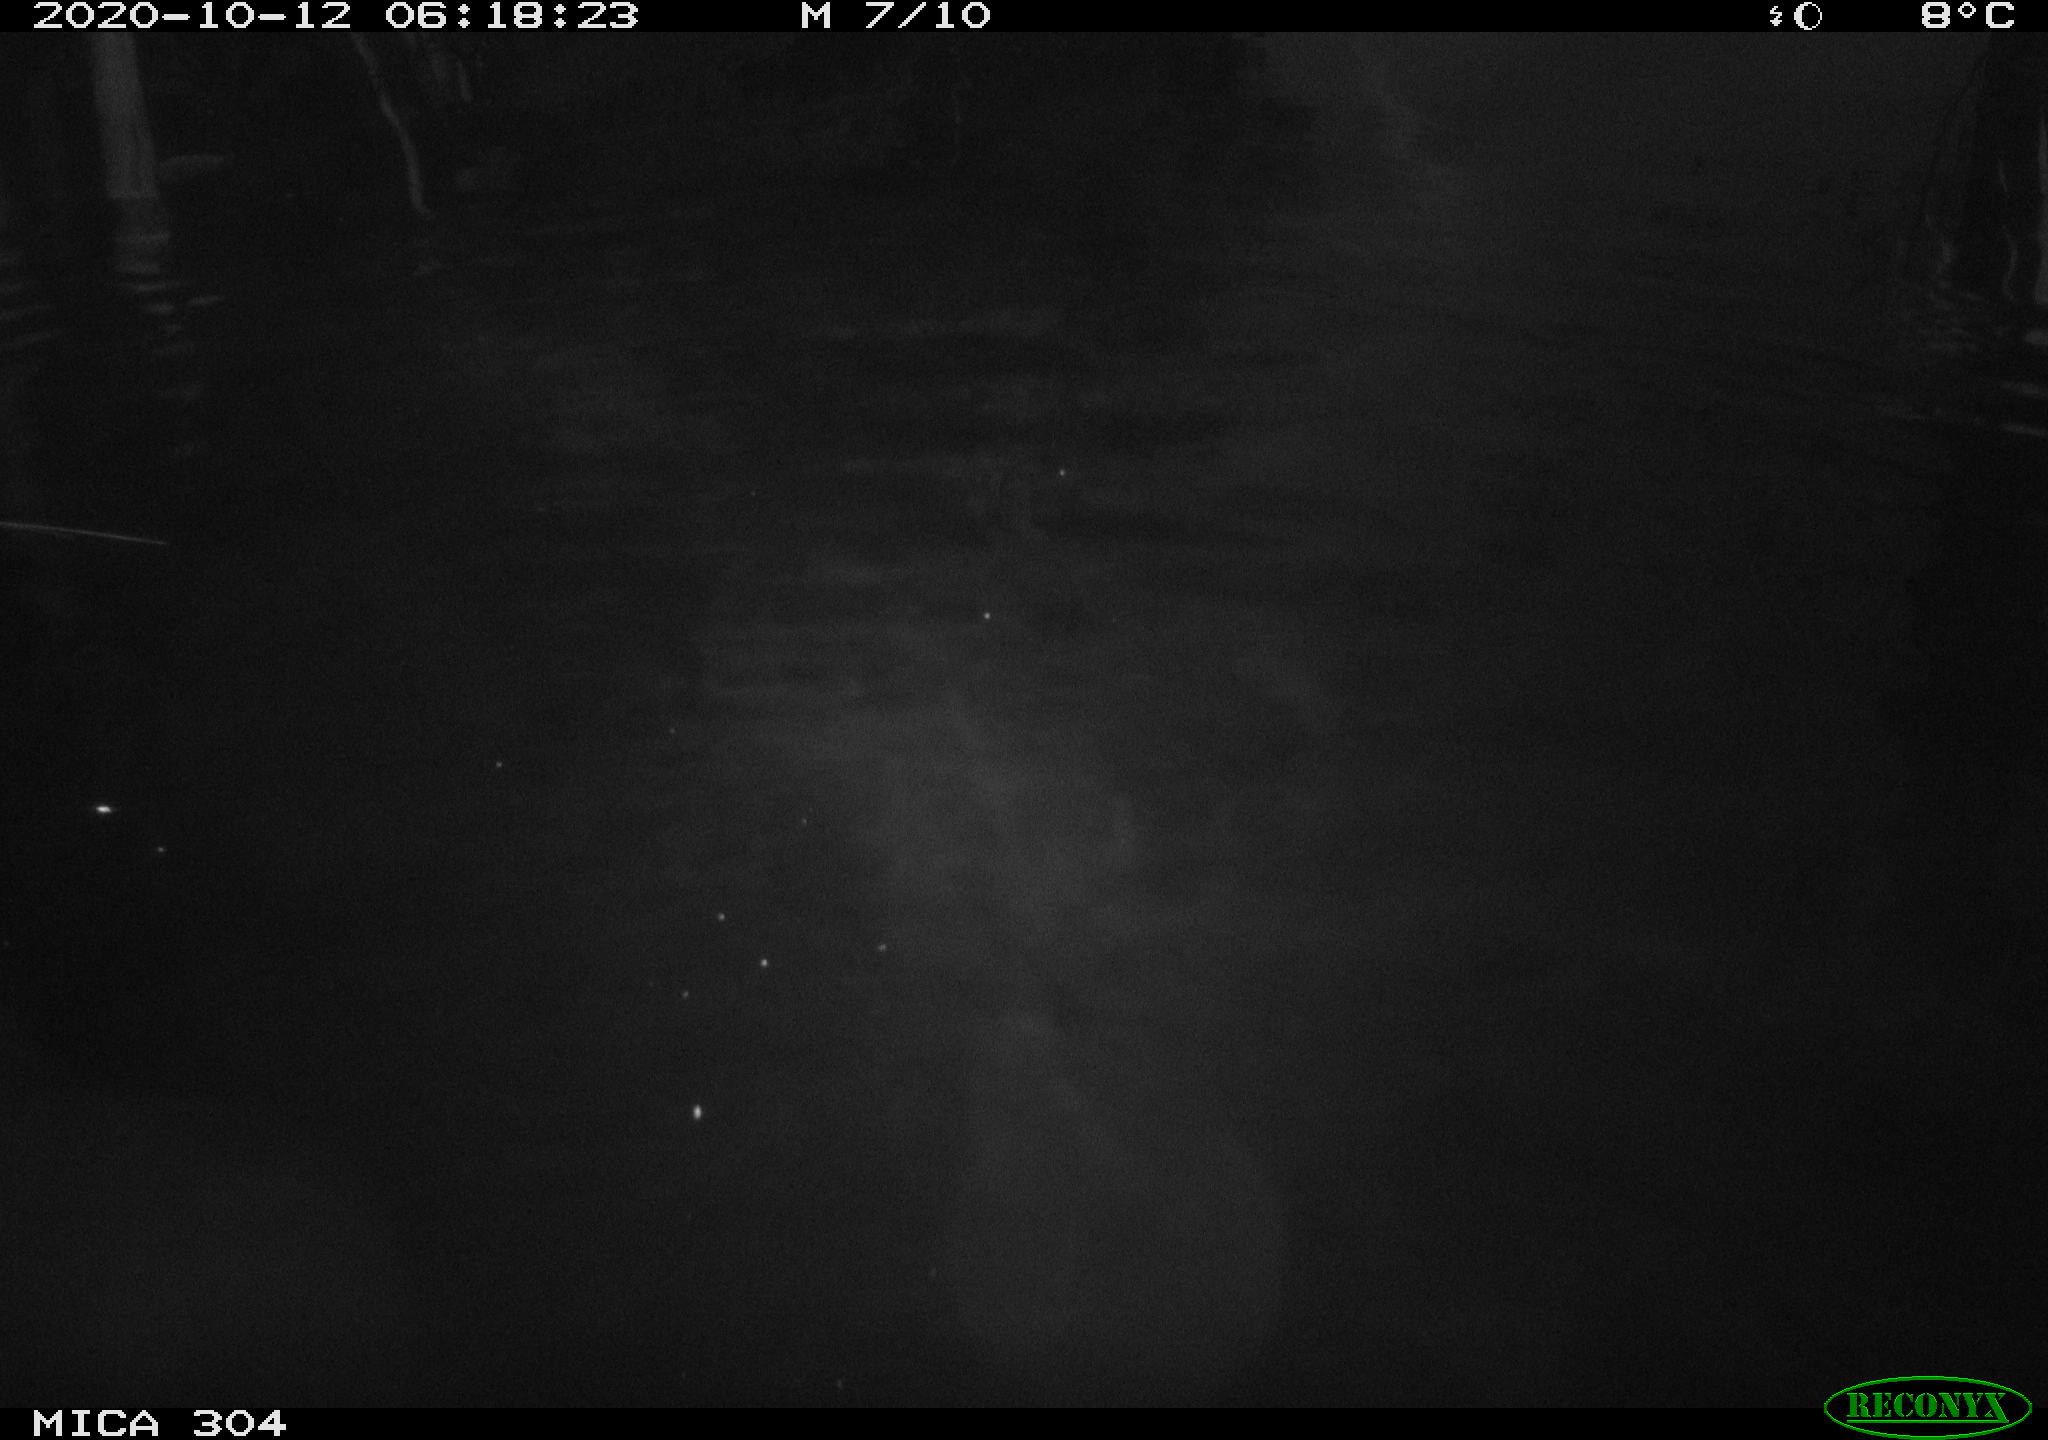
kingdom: Animalia
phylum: Chordata
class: Mammalia
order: Rodentia
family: Muridae
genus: Rattus
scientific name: Rattus norvegicus
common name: Brown rat
